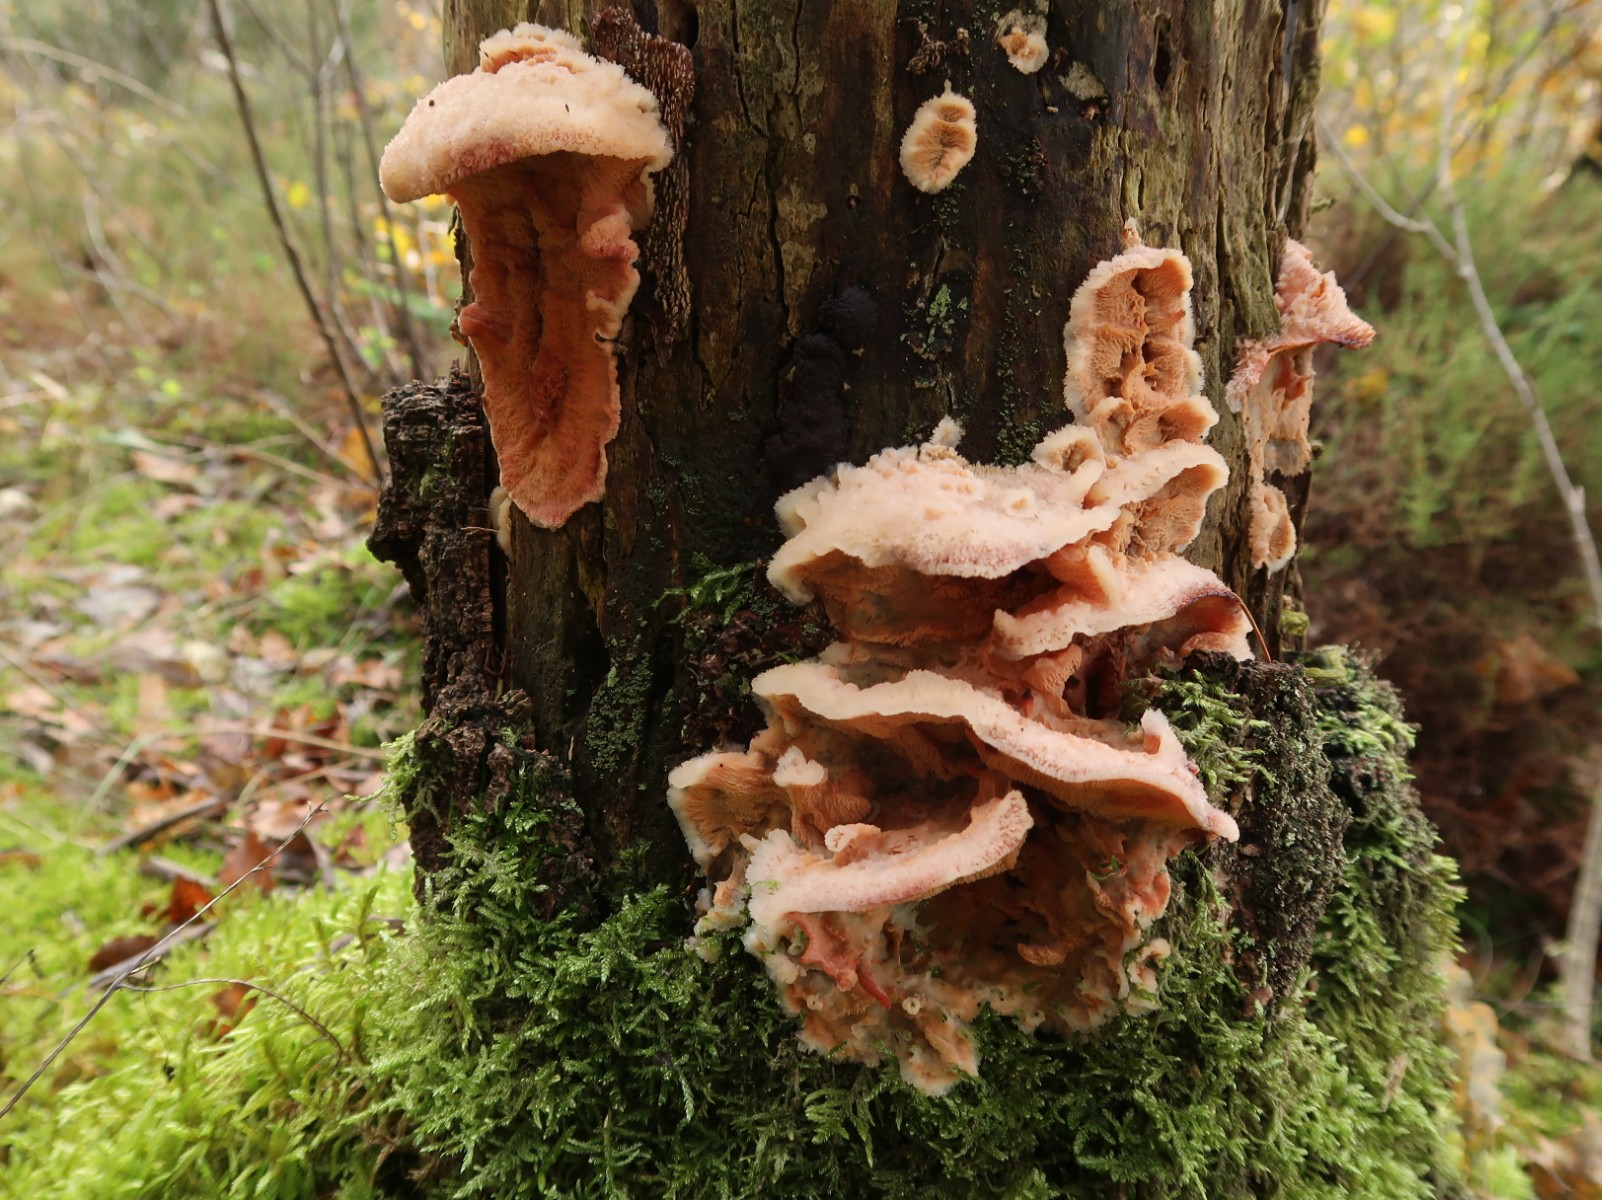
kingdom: Fungi
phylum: Basidiomycota
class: Agaricomycetes
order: Polyporales
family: Meruliaceae
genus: Phlebia
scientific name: Phlebia tremellosa
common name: bævrende åresvamp
